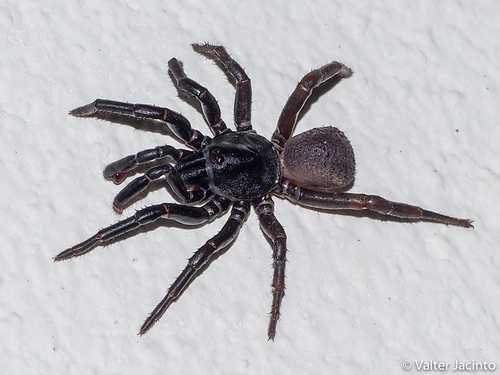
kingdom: Animalia
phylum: Arthropoda
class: Arachnida
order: Araneae
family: Halonoproctidae
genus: Ummidia
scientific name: Ummidia algarve
